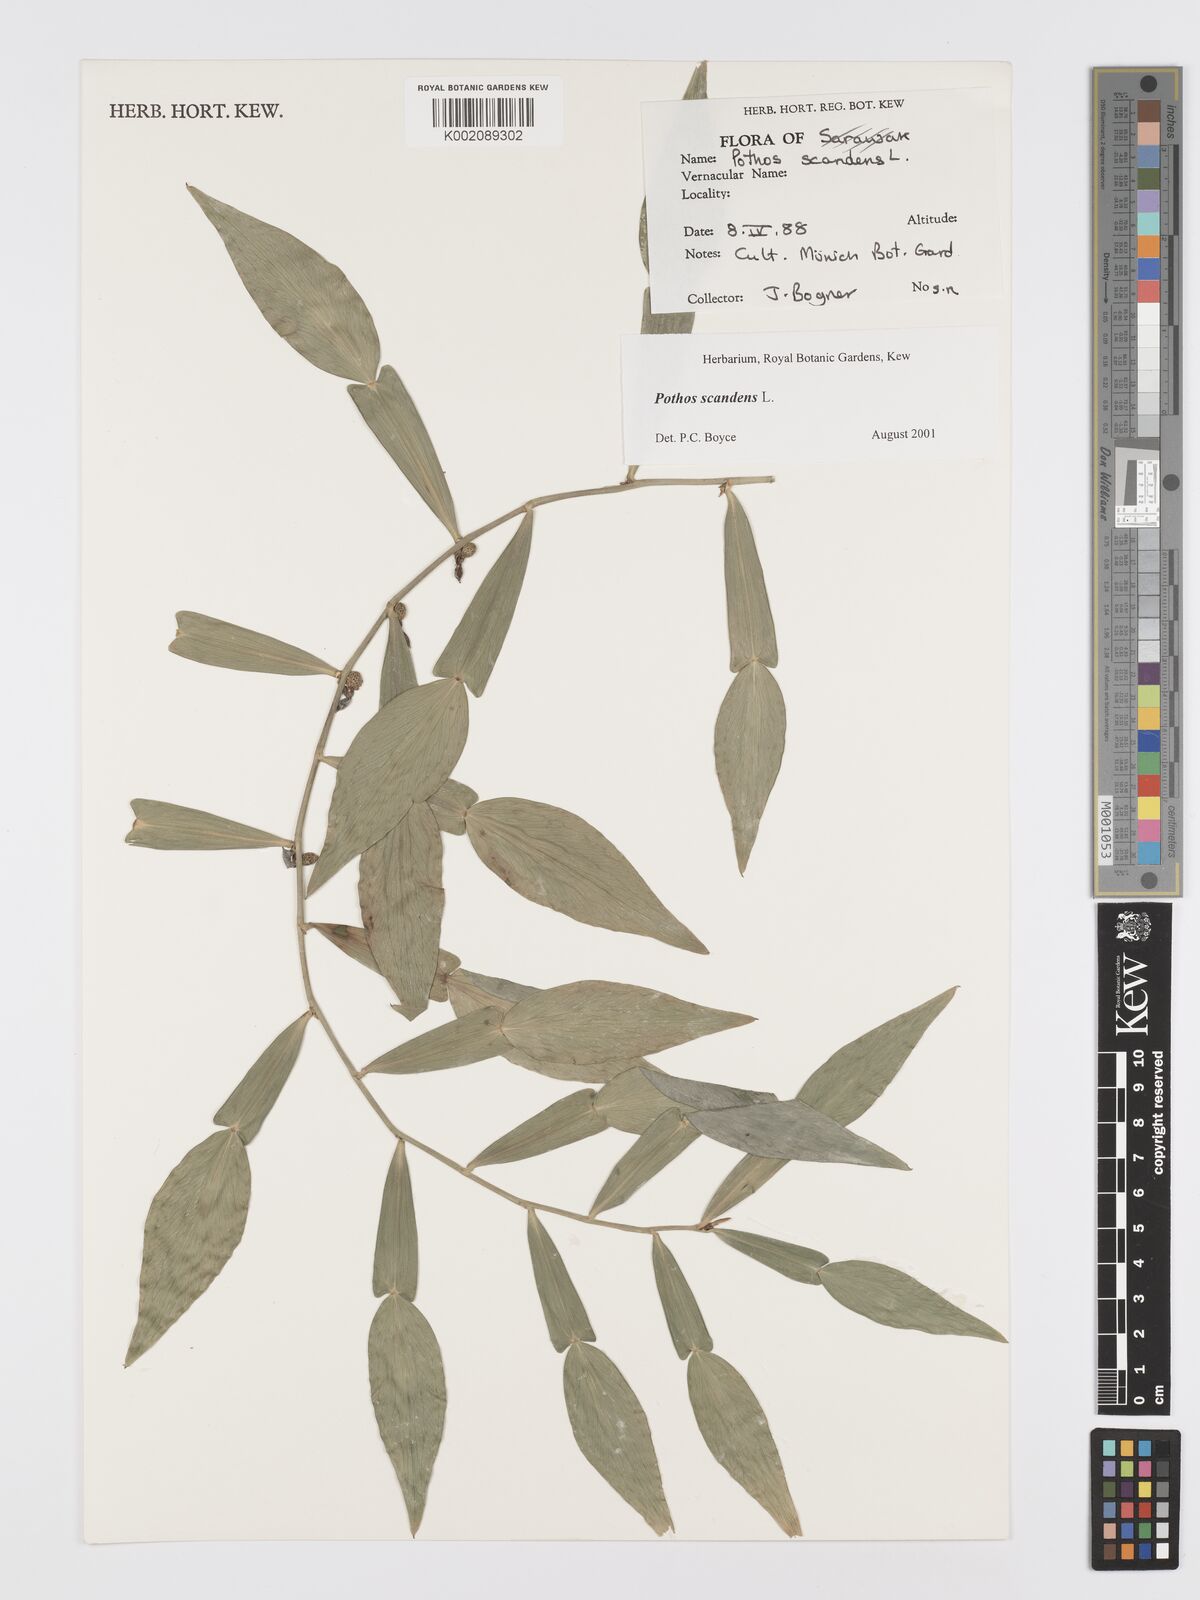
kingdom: Plantae
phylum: Tracheophyta
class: Liliopsida
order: Alismatales
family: Araceae
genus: Pothos
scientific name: Pothos scandens
